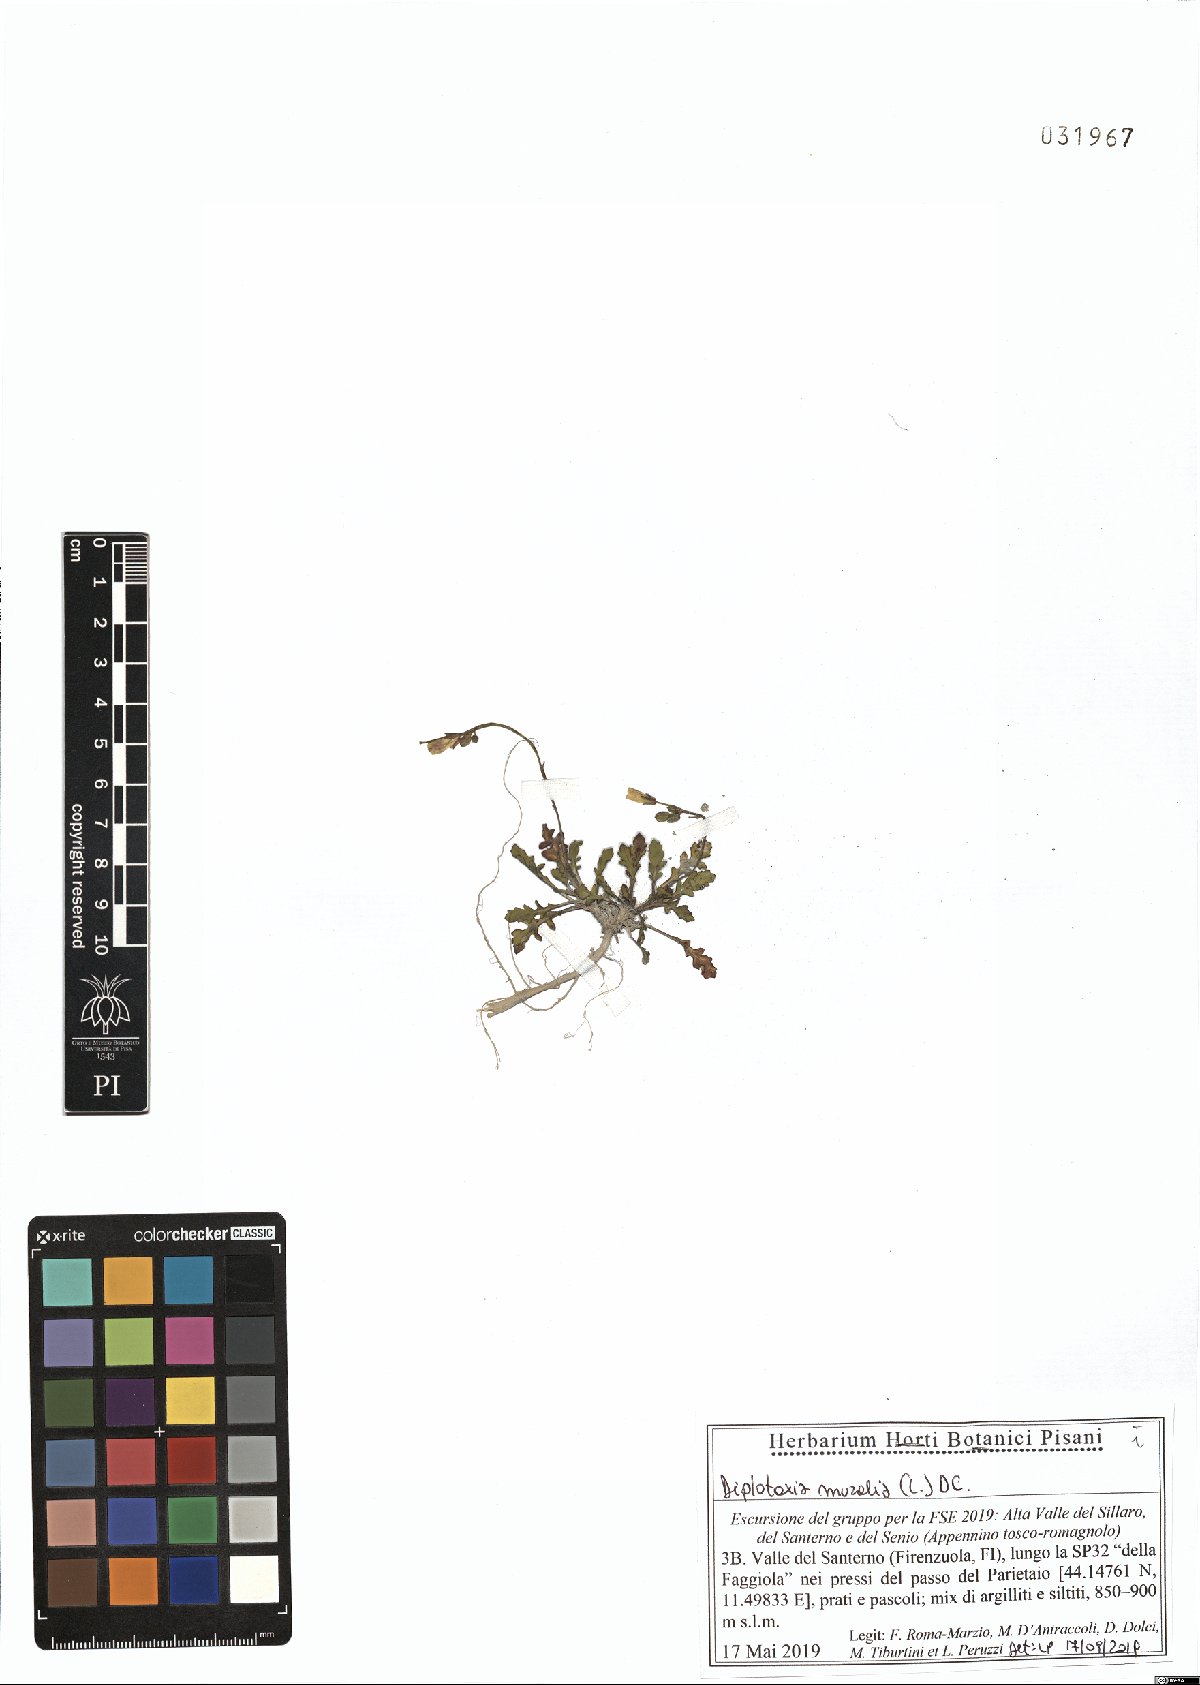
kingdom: Plantae
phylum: Tracheophyta
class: Magnoliopsida
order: Brassicales
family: Brassicaceae
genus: Diplotaxis
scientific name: Diplotaxis muralis
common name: Annual wall-rocket
